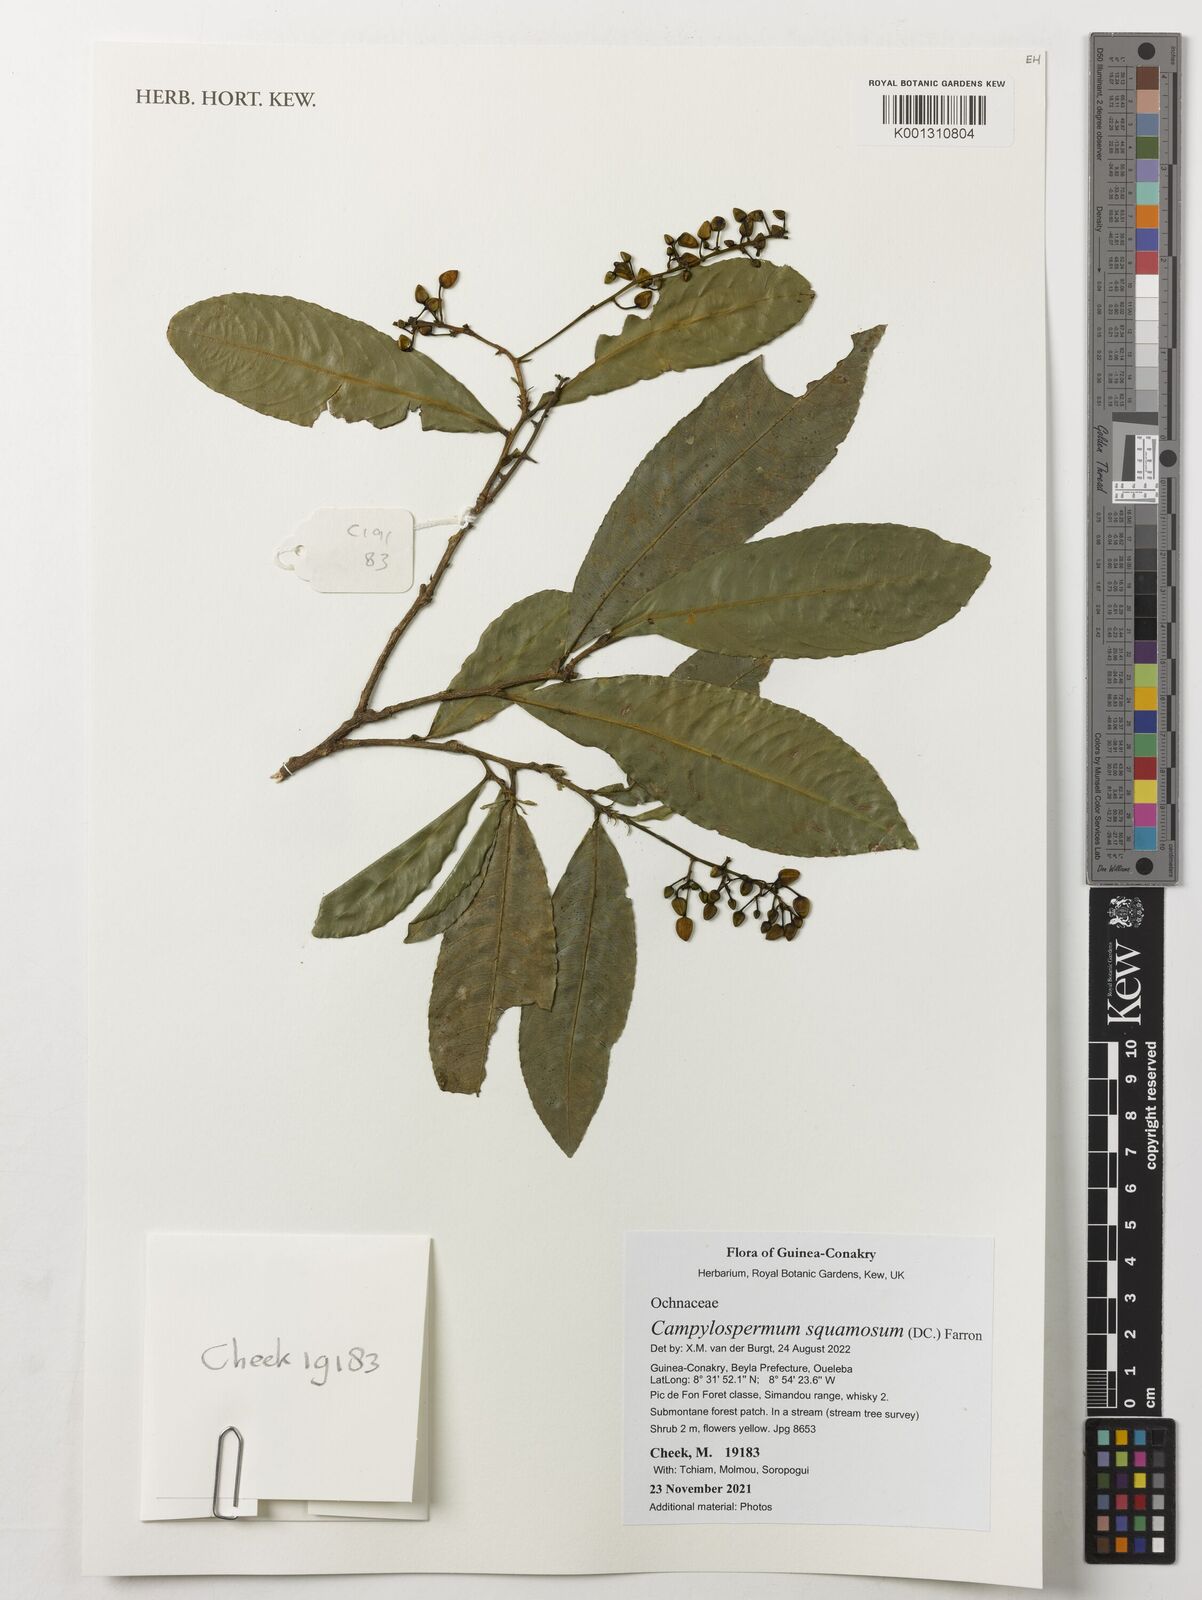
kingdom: Plantae
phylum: Tracheophyta
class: Magnoliopsida
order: Malpighiales
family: Ochnaceae
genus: Campylospermum
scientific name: Campylospermum squamosum
